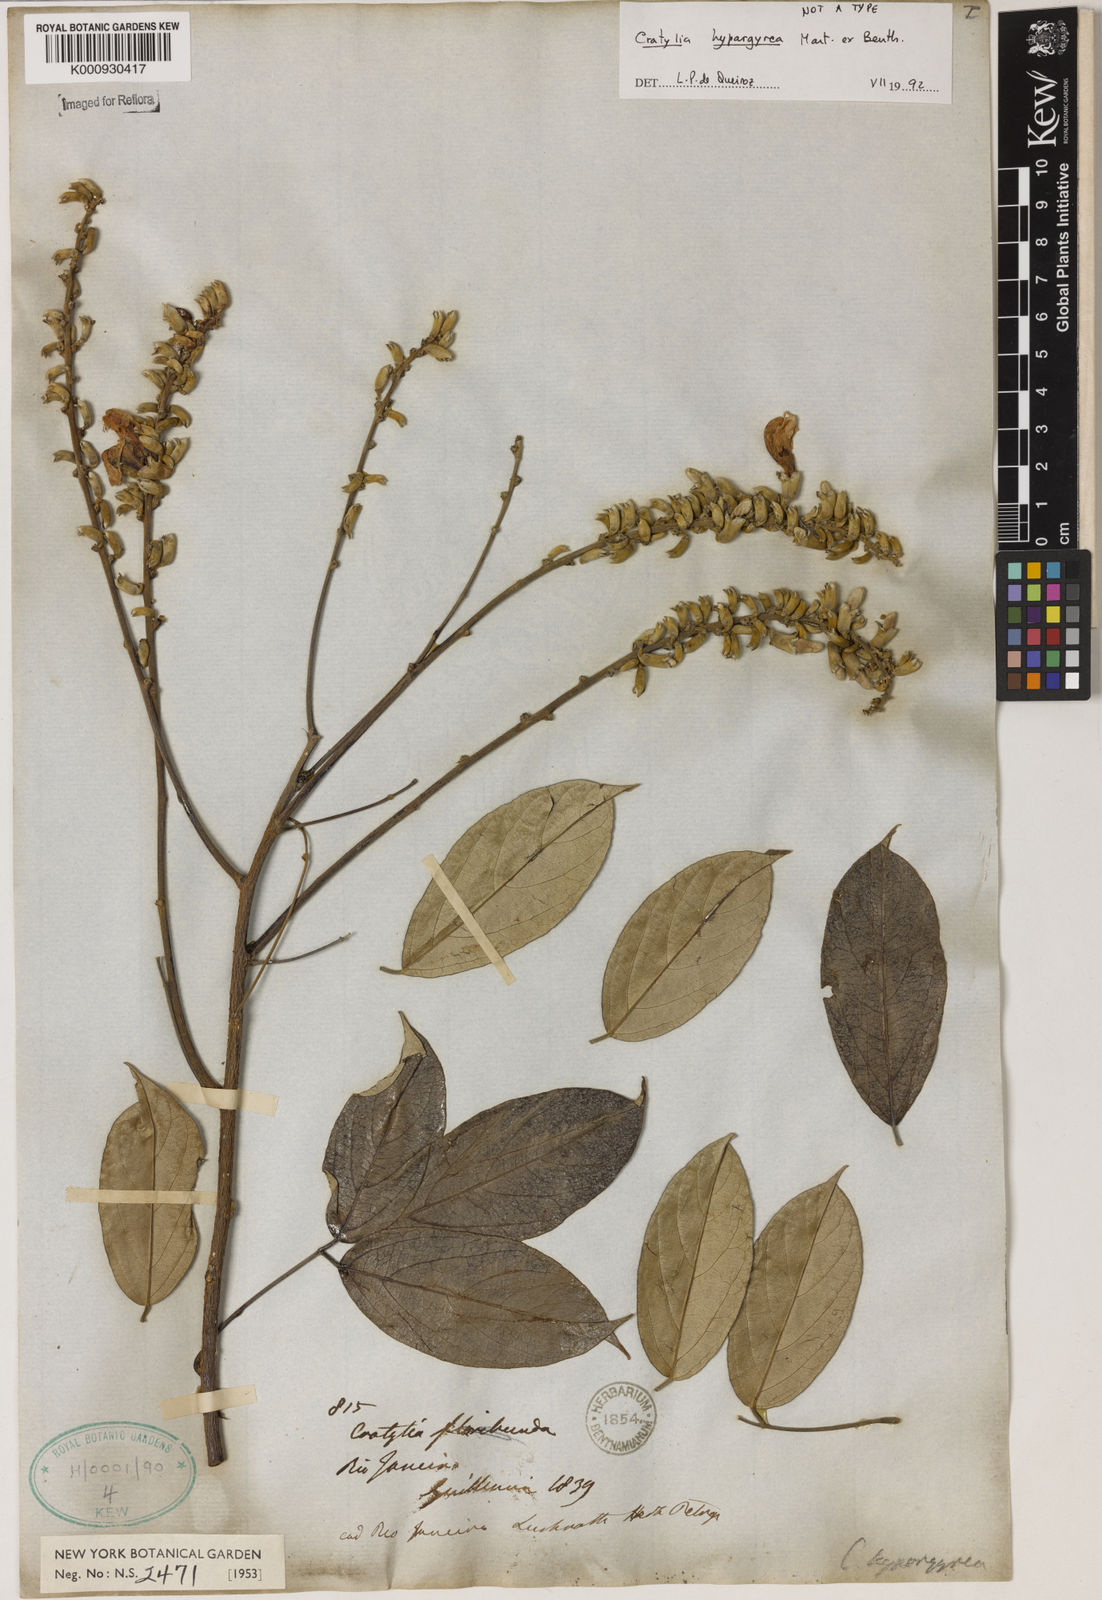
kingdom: Plantae
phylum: Tracheophyta
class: Magnoliopsida
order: Fabales
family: Fabaceae
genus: Cratylia
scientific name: Cratylia
